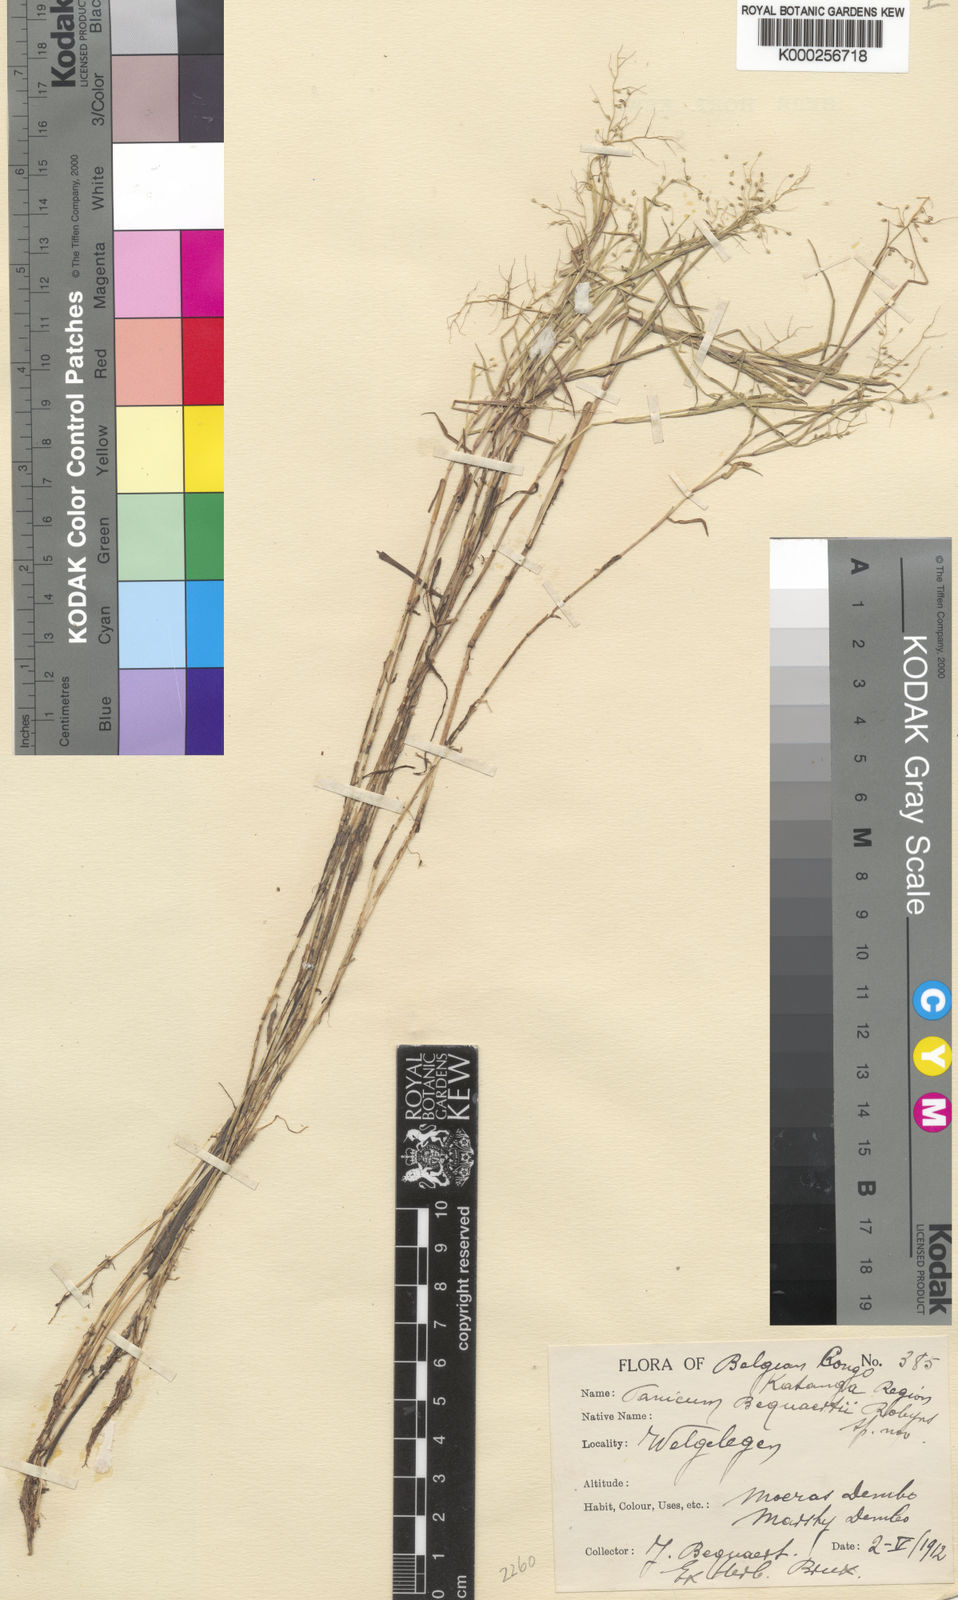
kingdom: Plantae
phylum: Tracheophyta
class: Liliopsida
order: Poales
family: Poaceae
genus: Adenochloa
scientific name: Adenochloa nigromarginata
